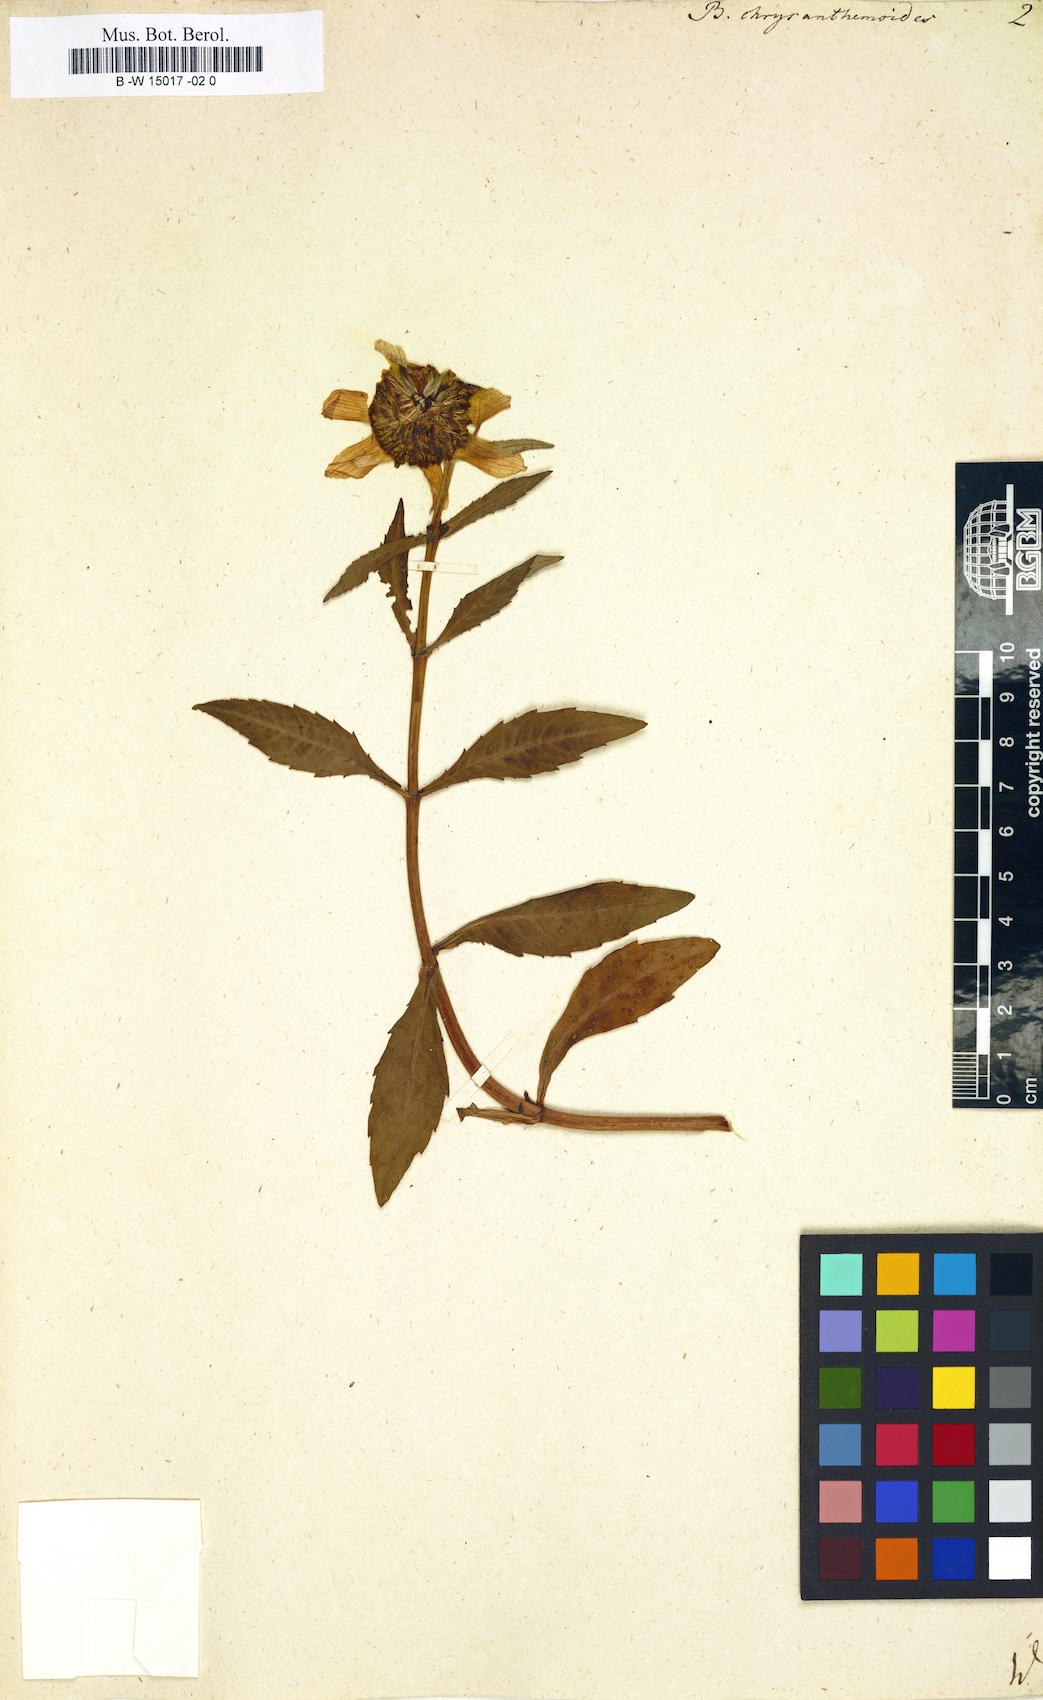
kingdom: Plantae
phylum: Tracheophyta
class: Magnoliopsida
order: Asterales
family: Asteraceae
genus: Bidens
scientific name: Bidens laevis
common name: Larger bur-marigold
